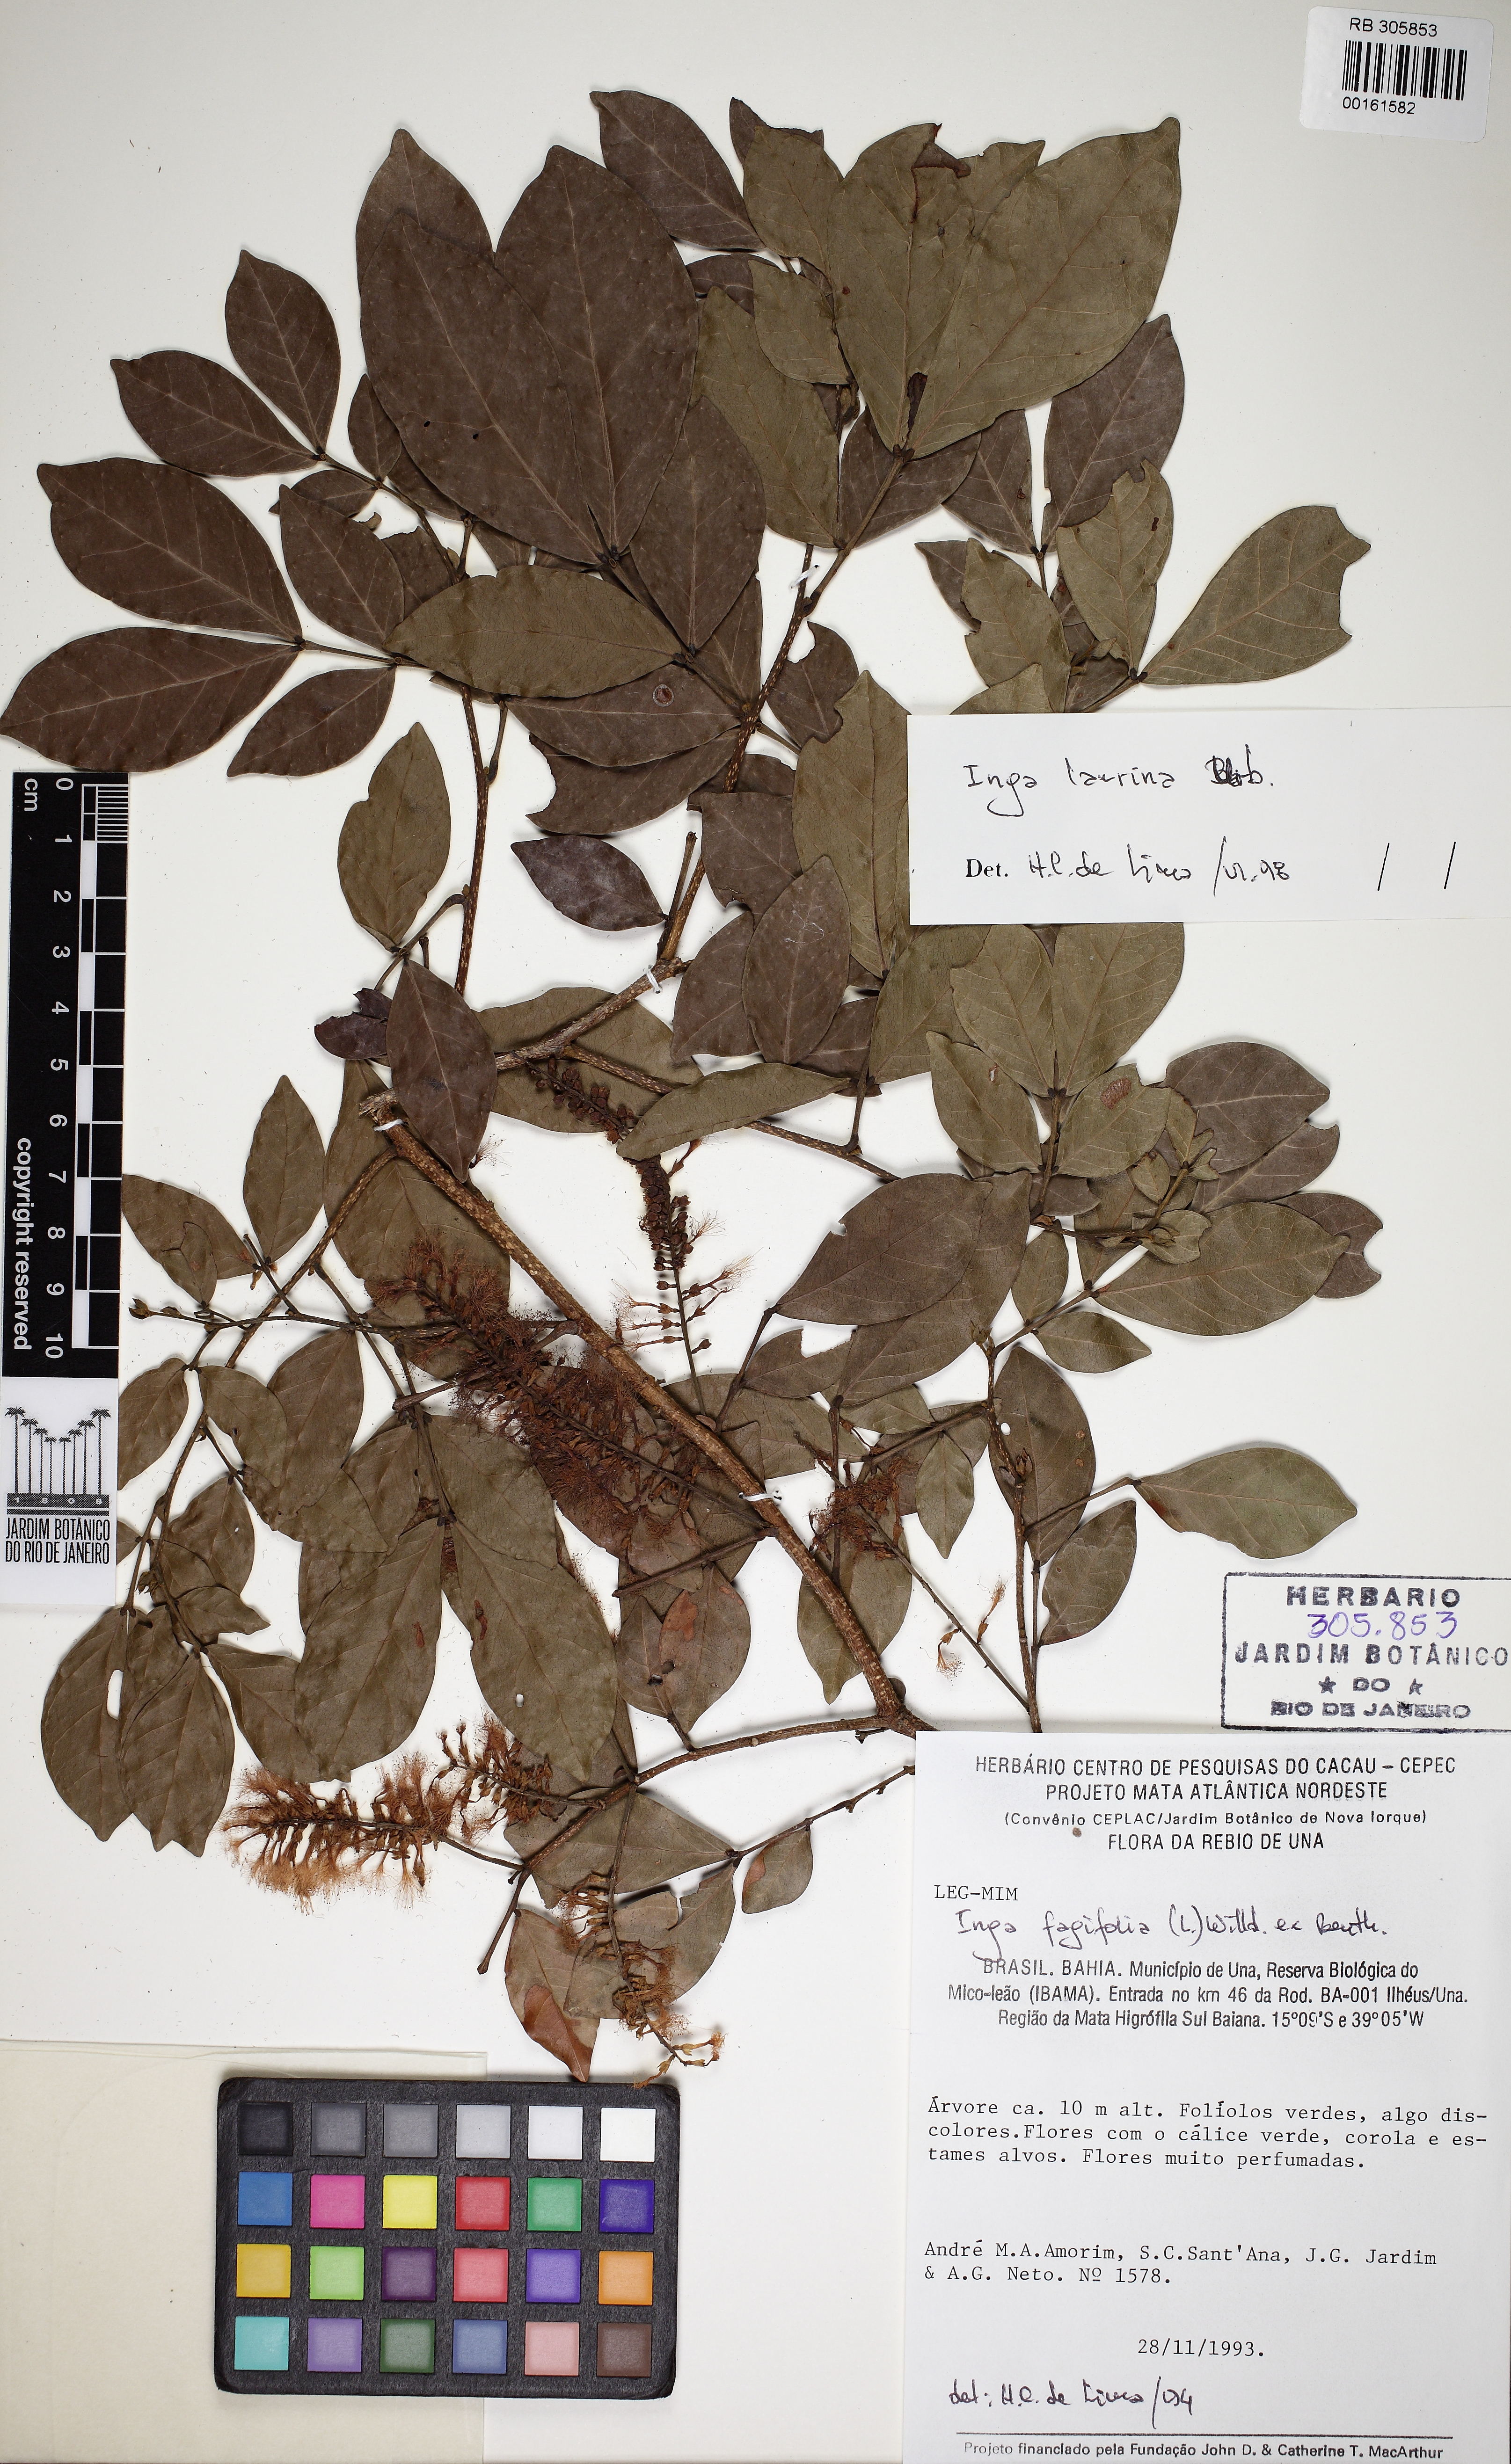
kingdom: Plantae
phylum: Tracheophyta
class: Magnoliopsida
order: Fabales
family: Fabaceae
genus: Inga
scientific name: Inga ruiziana
